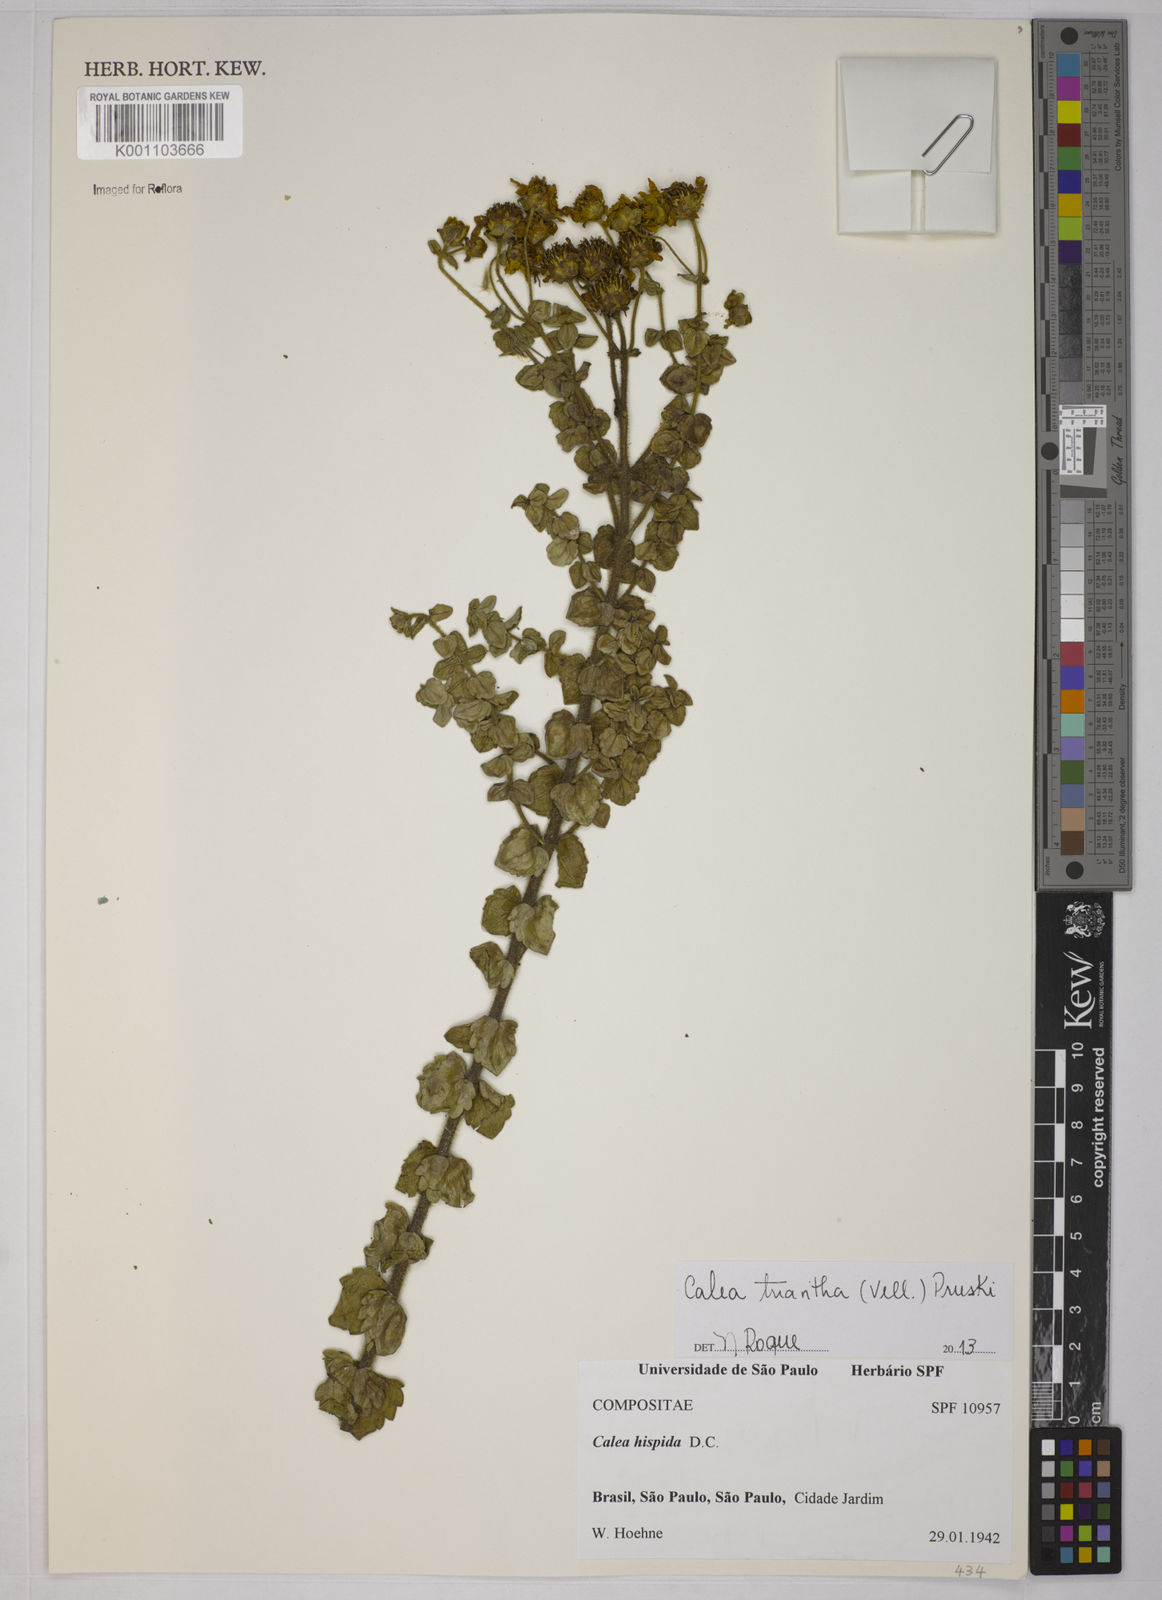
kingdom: Plantae
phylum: Tracheophyta
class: Magnoliopsida
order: Asterales
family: Asteraceae
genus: Calea
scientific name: Calea triantha
